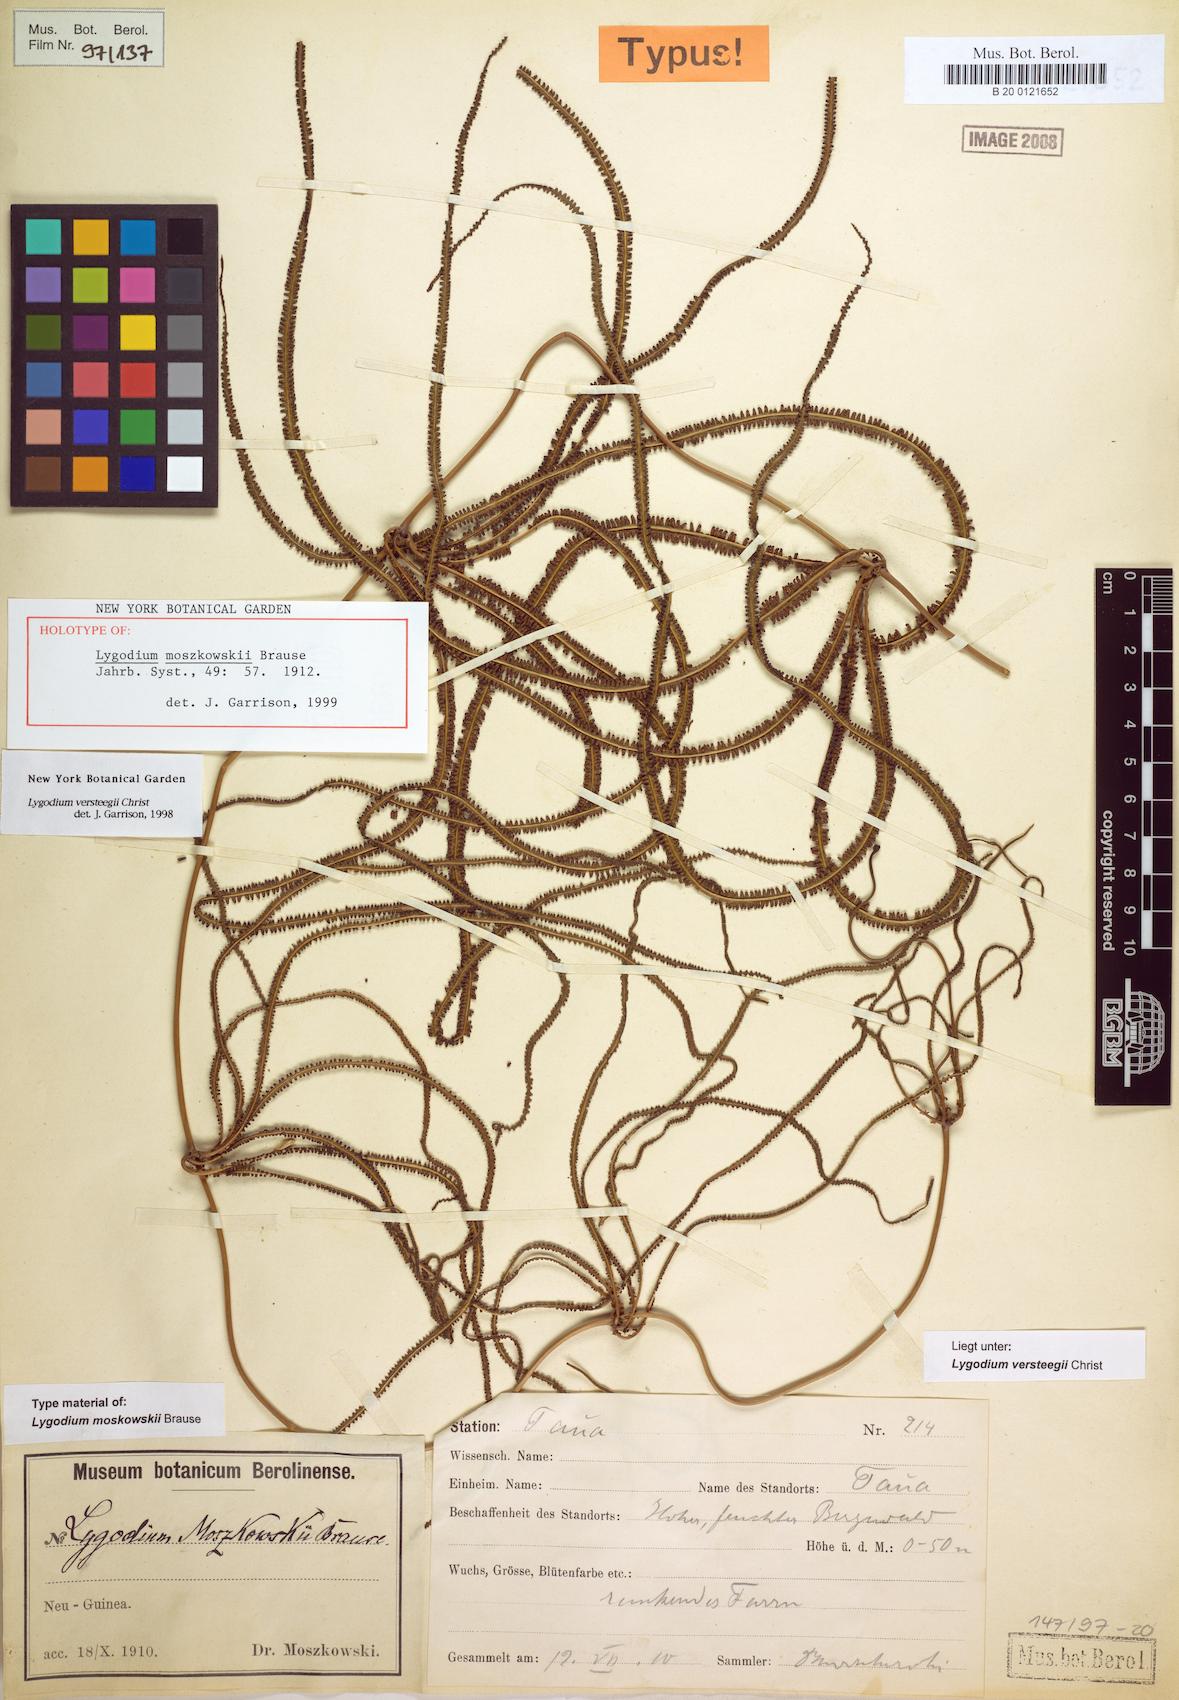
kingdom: Plantae
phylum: Tracheophyta
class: Polypodiopsida
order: Schizaeales
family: Lygodiaceae
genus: Lygodium
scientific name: Lygodium versteegii
